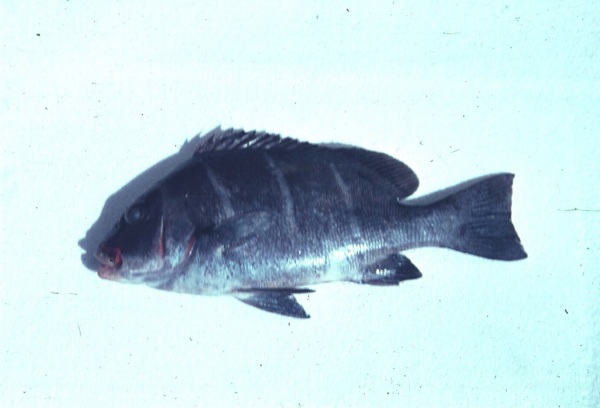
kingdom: Animalia
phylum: Chordata
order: Perciformes
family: Haemulidae
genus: Plectorhinchus
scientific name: Plectorhinchus playfairi
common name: Whitebarred rubberlip
